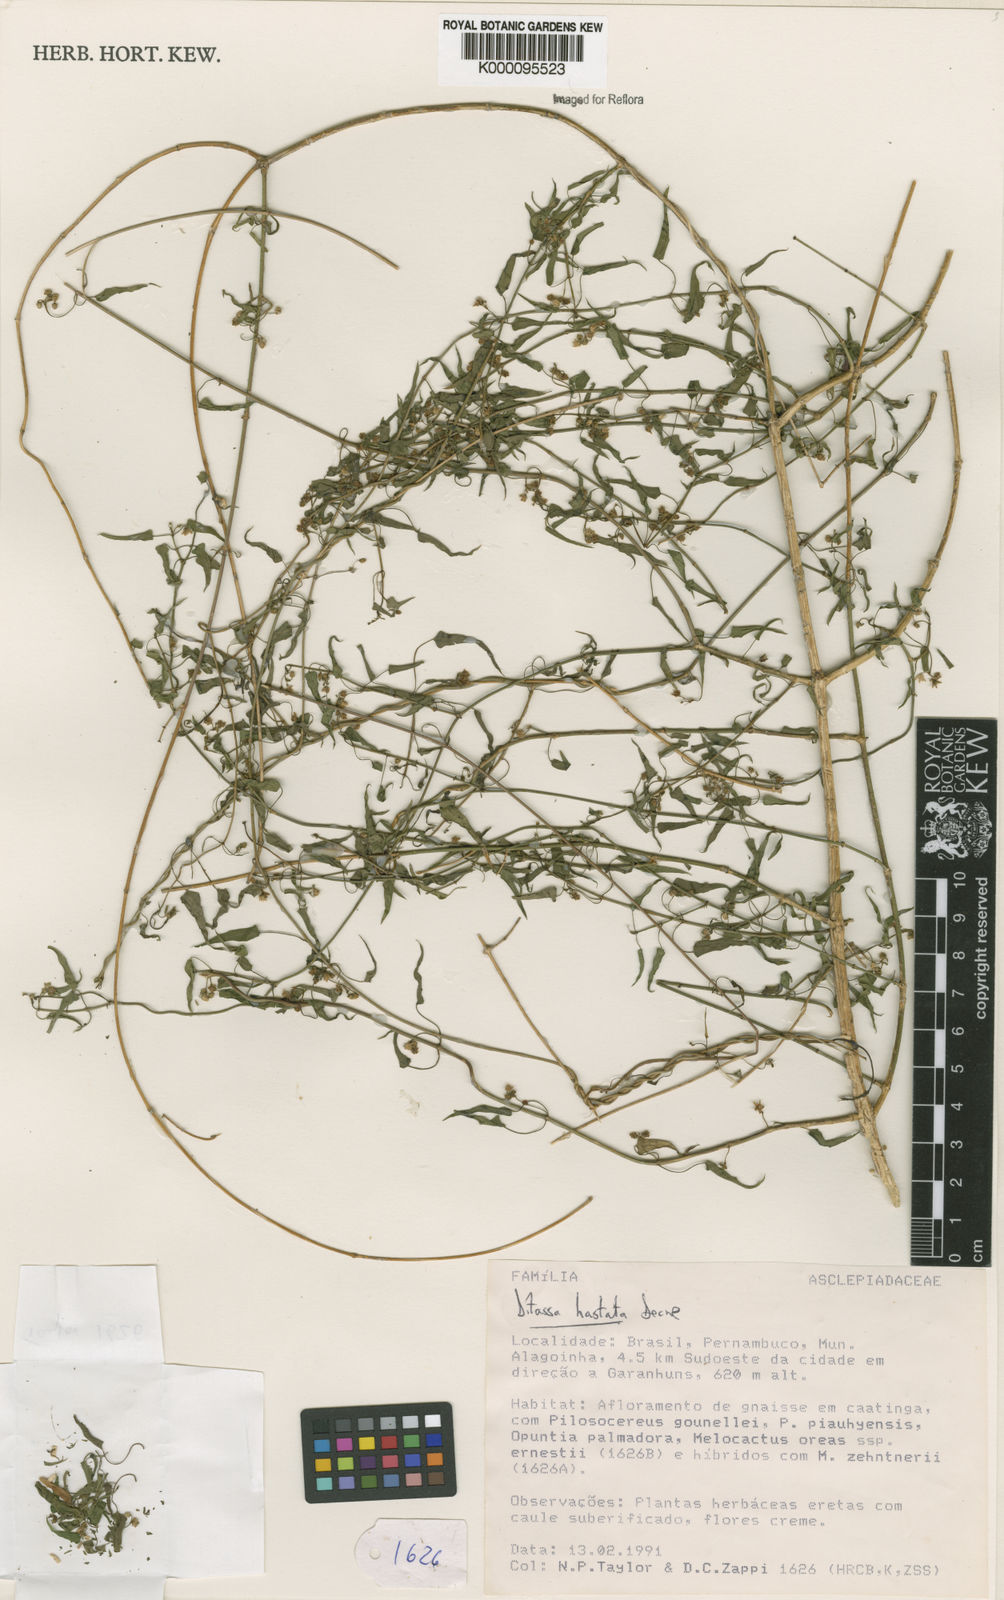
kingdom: Plantae
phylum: Tracheophyta
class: Magnoliopsida
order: Gentianales
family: Apocynaceae
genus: Ditassa
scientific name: Ditassa hastata
